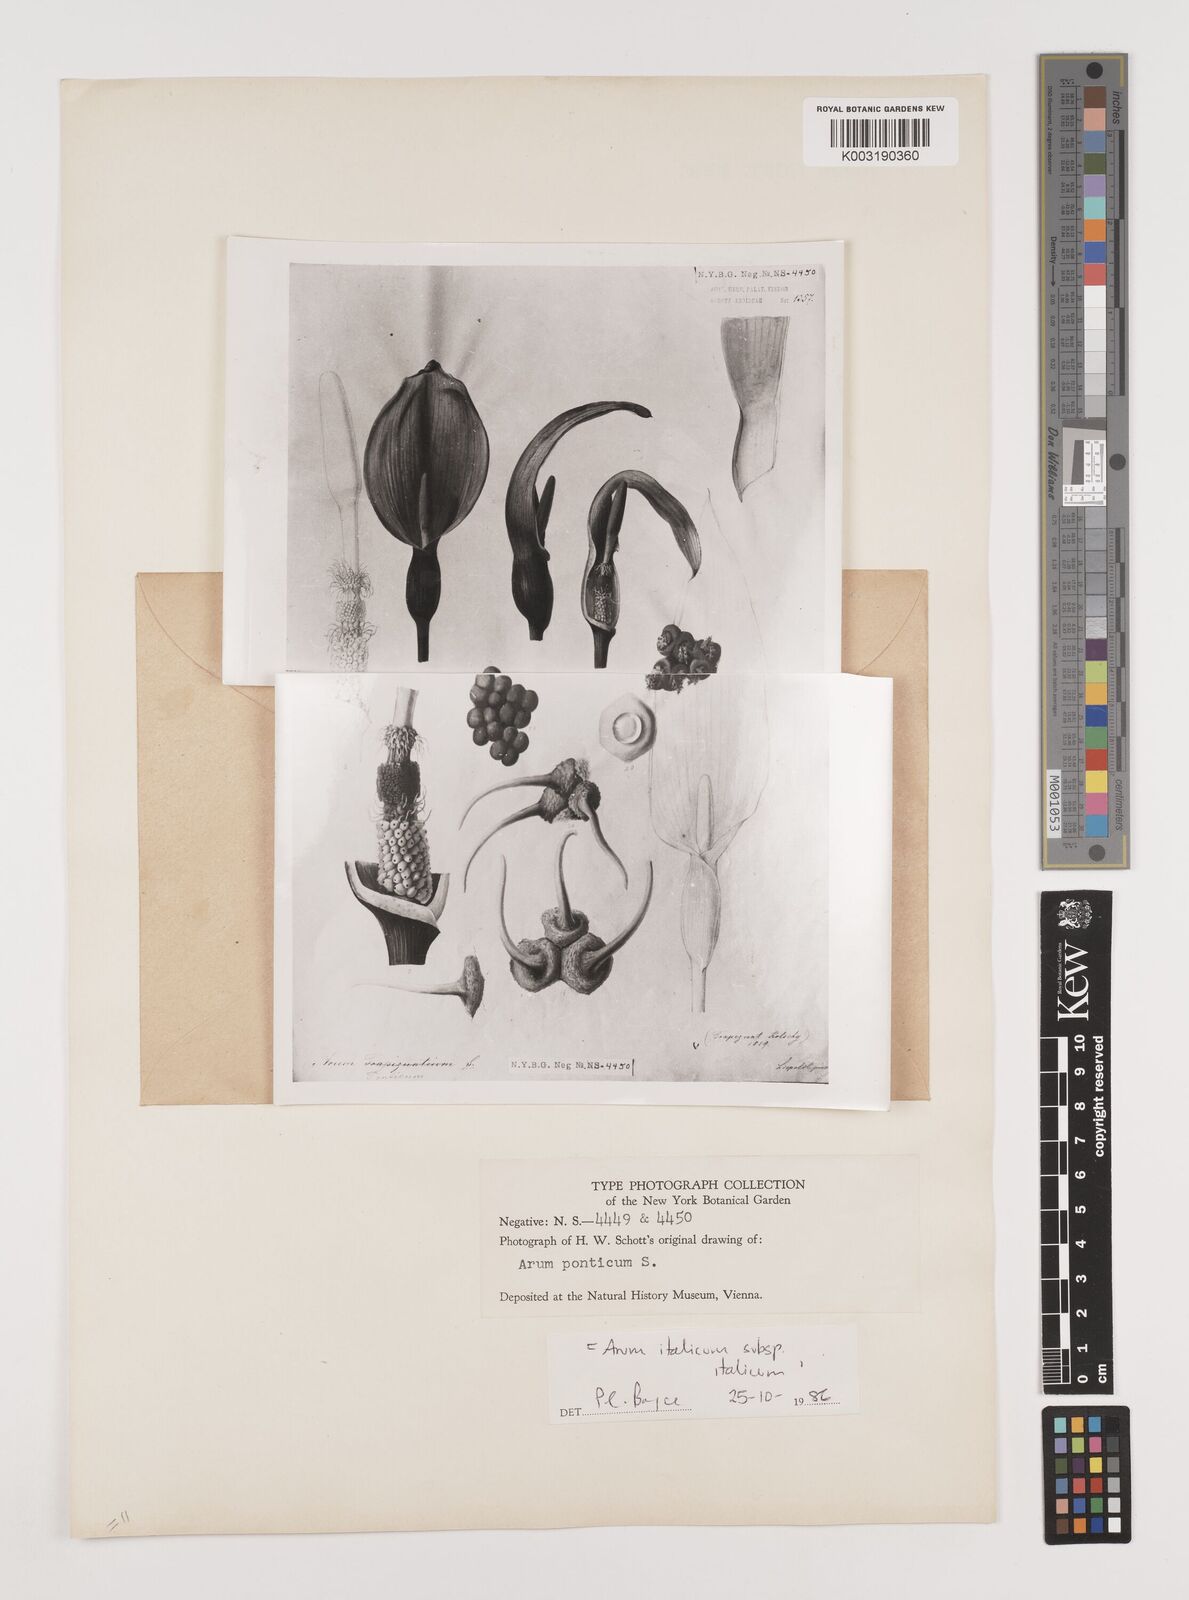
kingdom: Plantae
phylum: Tracheophyta
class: Liliopsida
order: Alismatales
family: Araceae
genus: Arum
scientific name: Arum italicum
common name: Italian lords-and-ladies
